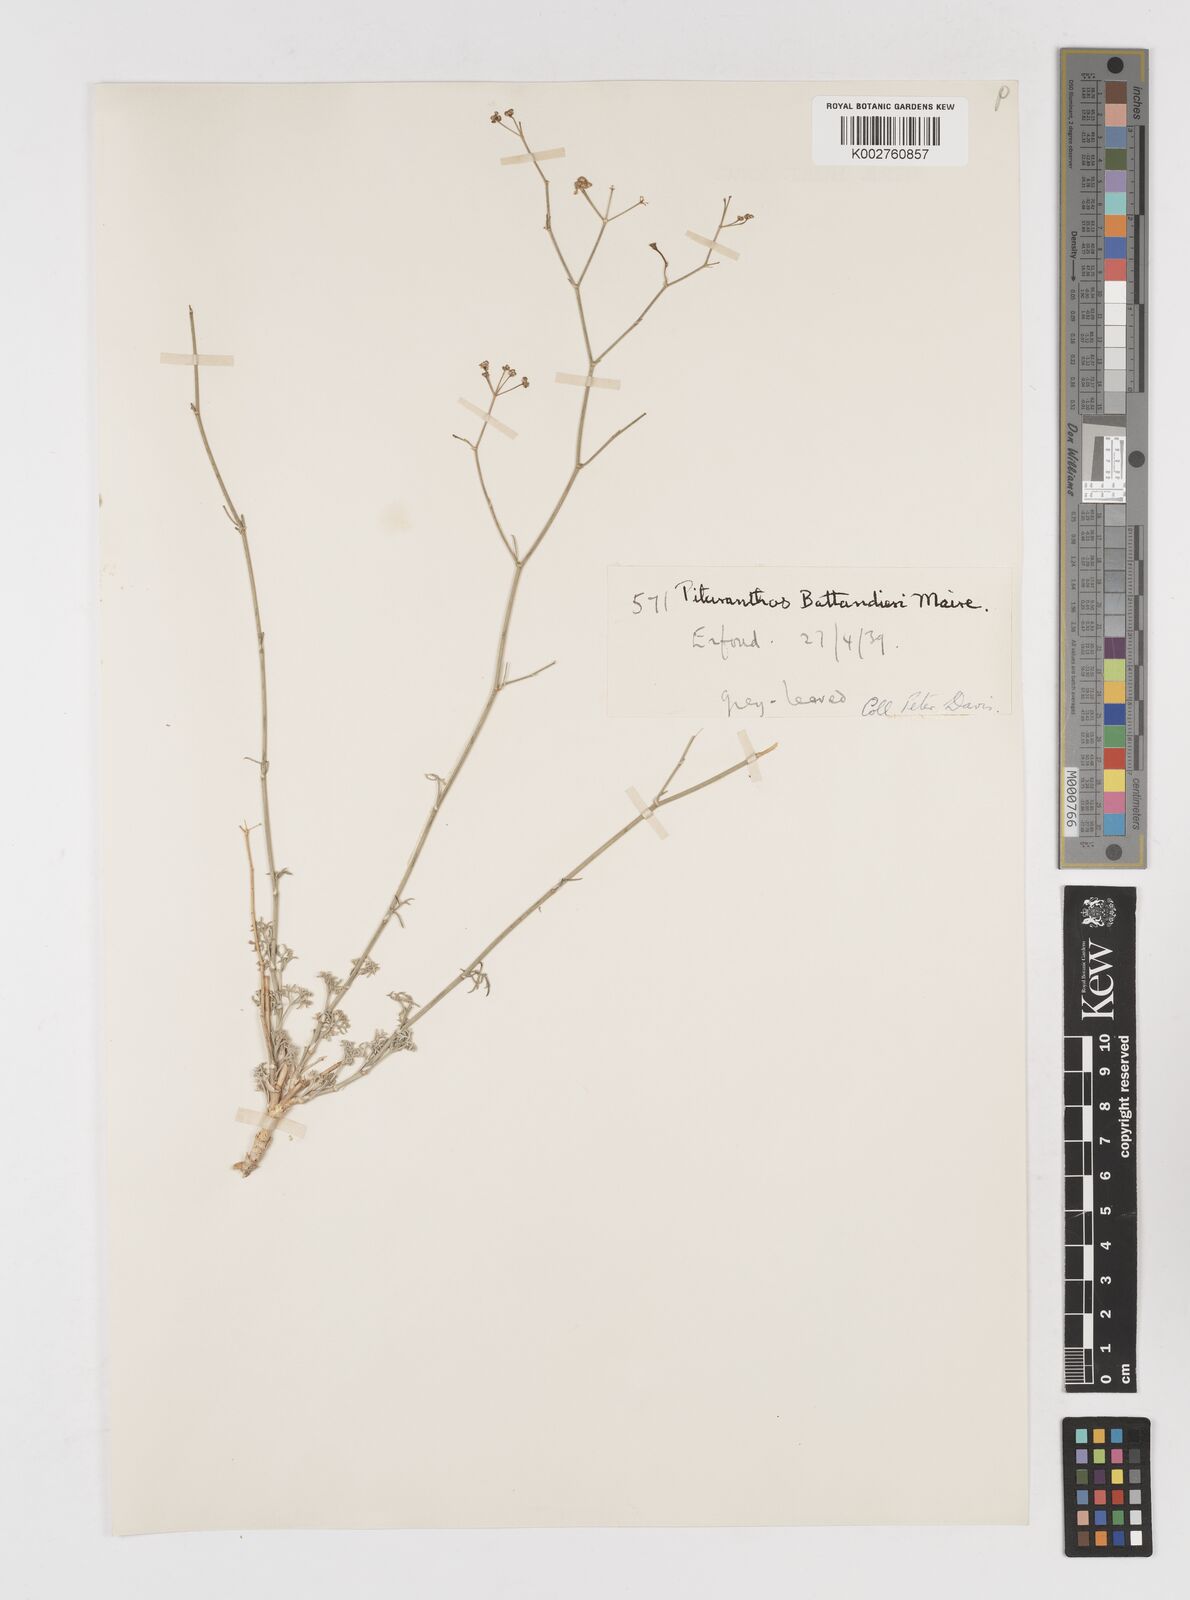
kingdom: Plantae
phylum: Tracheophyta
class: Magnoliopsida
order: Apiales
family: Apiaceae
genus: Deverra
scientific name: Deverra battandieri
